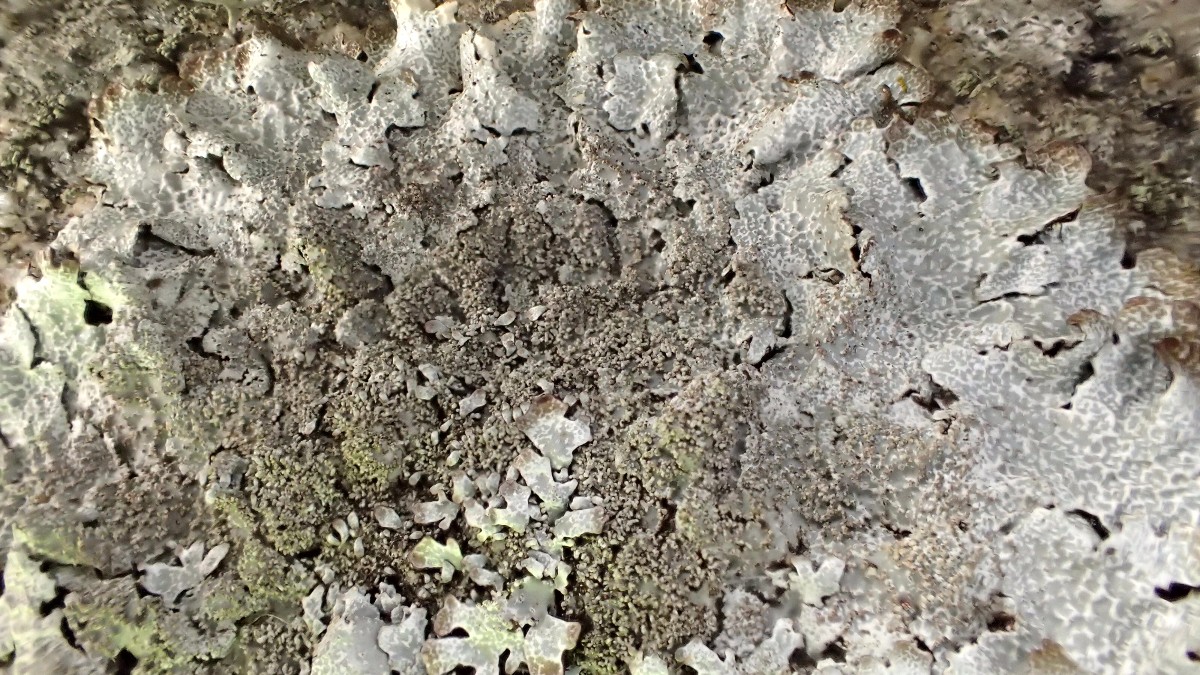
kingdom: Fungi
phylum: Ascomycota
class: Lecanoromycetes
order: Lecanorales
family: Parmeliaceae
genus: Parmelia
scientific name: Parmelia saxatilis
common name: farve-skållav
